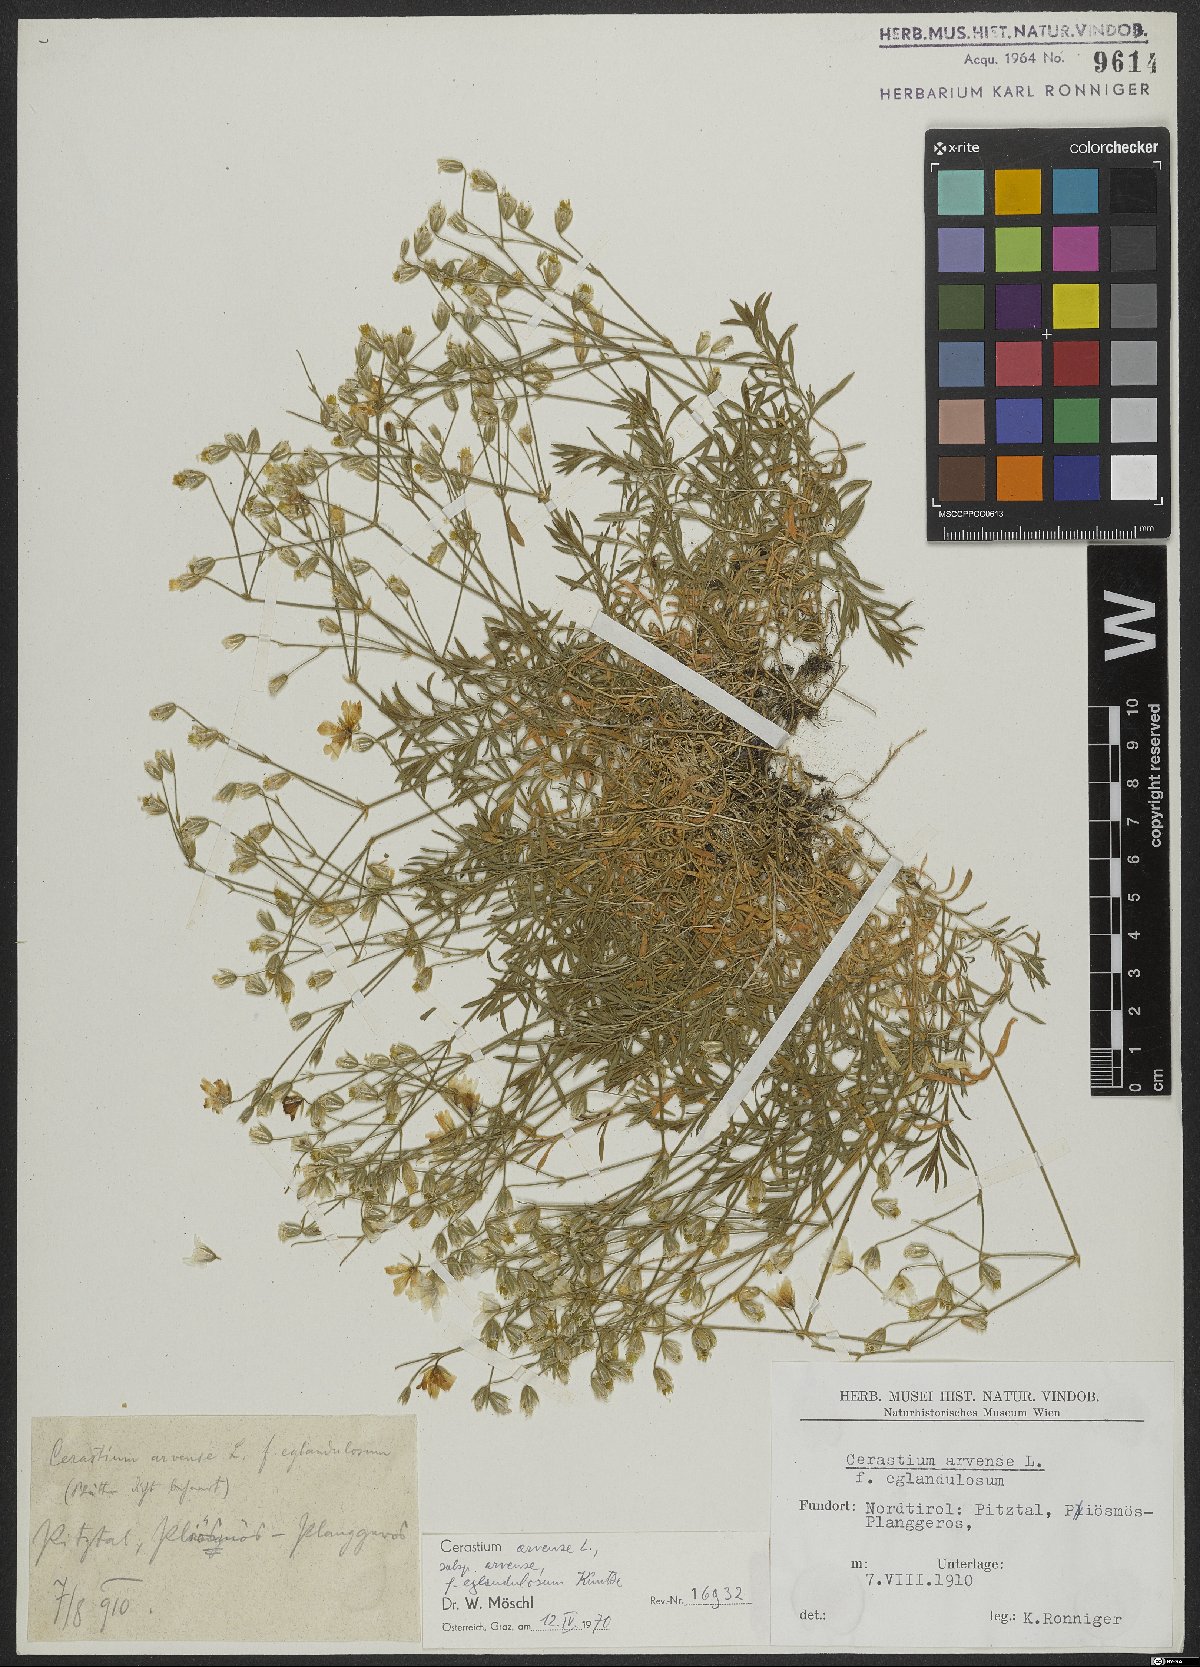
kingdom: Plantae
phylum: Tracheophyta
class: Magnoliopsida
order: Caryophyllales
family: Caryophyllaceae
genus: Cerastium
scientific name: Cerastium arvense
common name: Field mouse-ear
